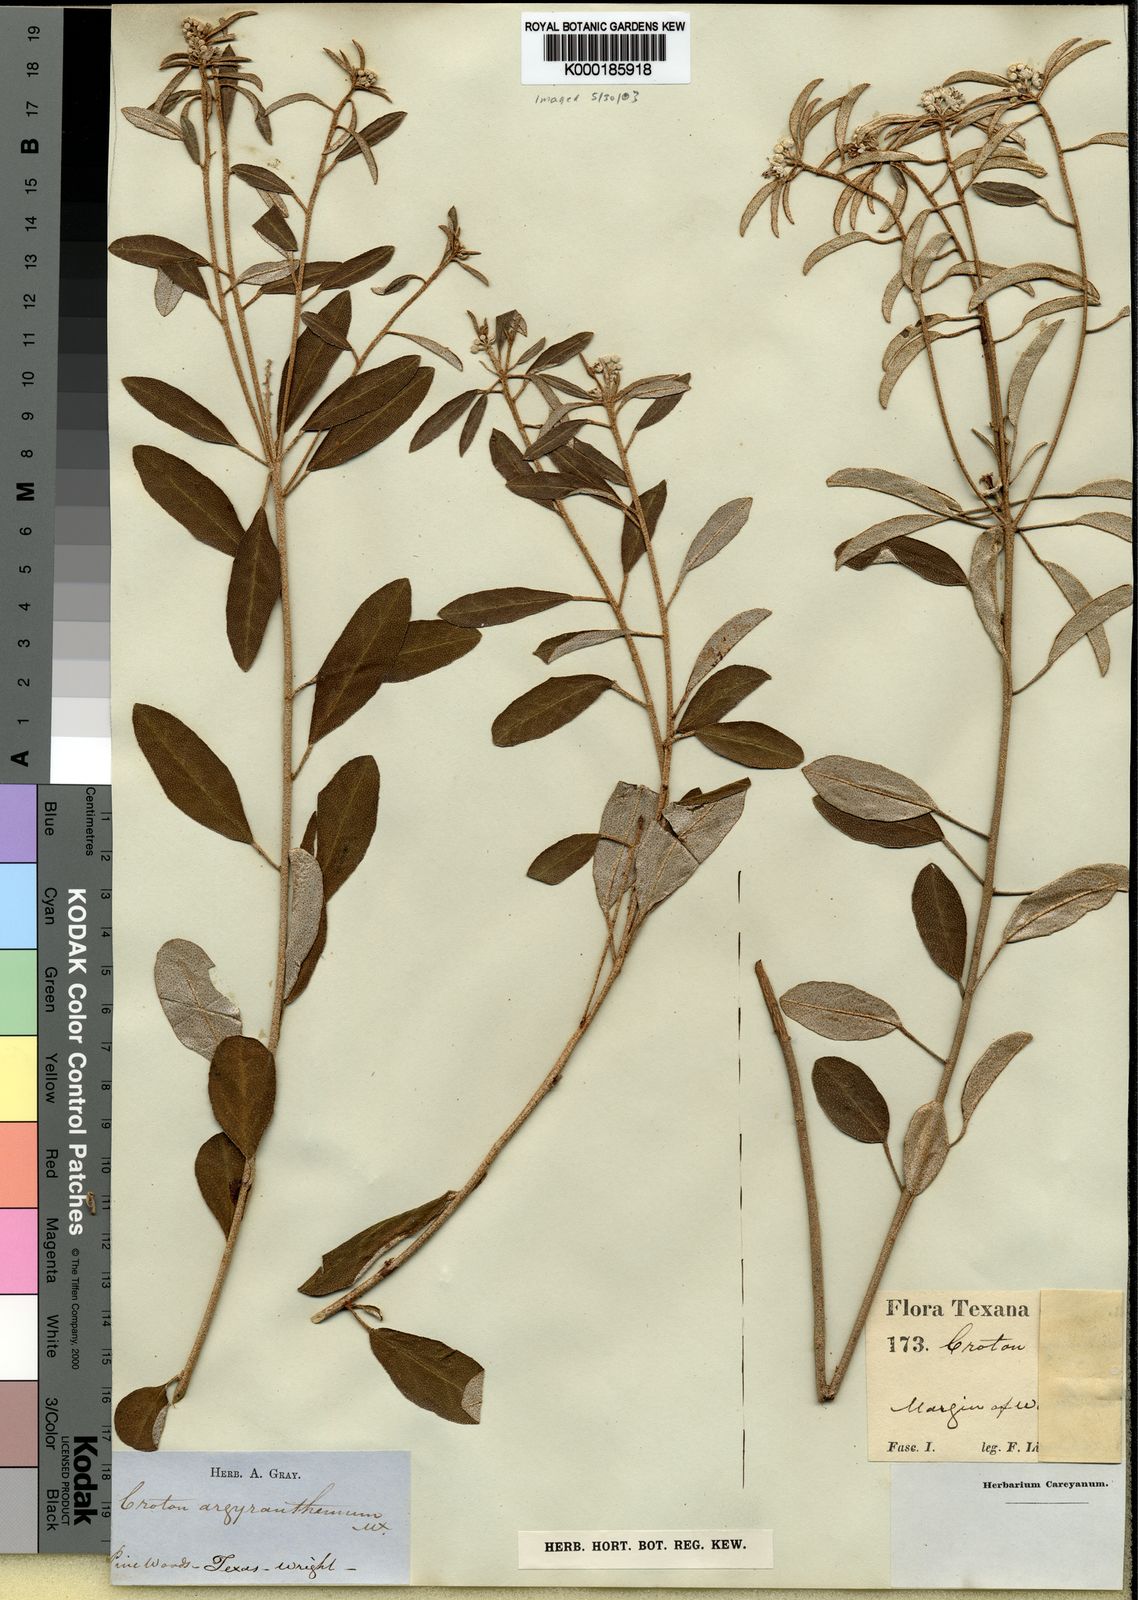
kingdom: Plantae
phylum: Tracheophyta
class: Magnoliopsida
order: Malpighiales
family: Euphorbiaceae
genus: Croton
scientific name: Croton argyranthemus
